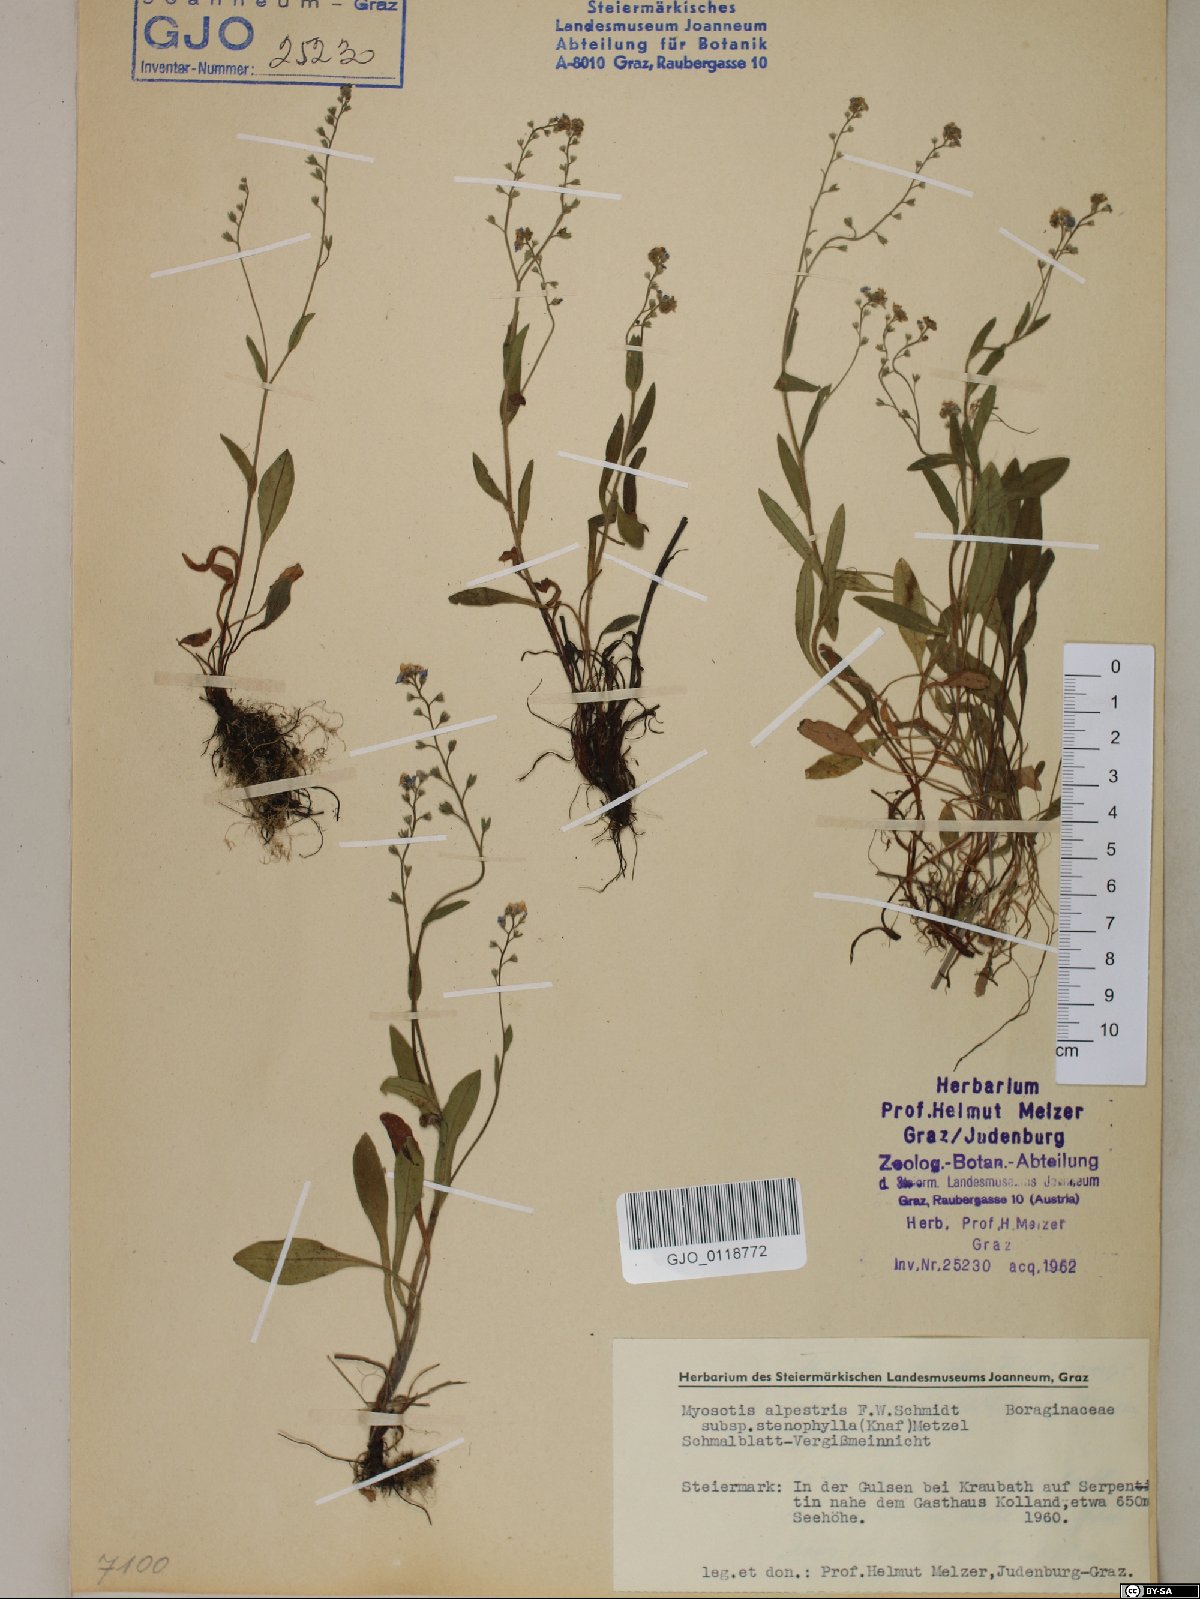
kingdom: Plantae
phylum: Tracheophyta
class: Magnoliopsida
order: Boraginales
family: Boraginaceae
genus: Myosotis
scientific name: Myosotis alpestris
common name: Alpine forget-me-not
